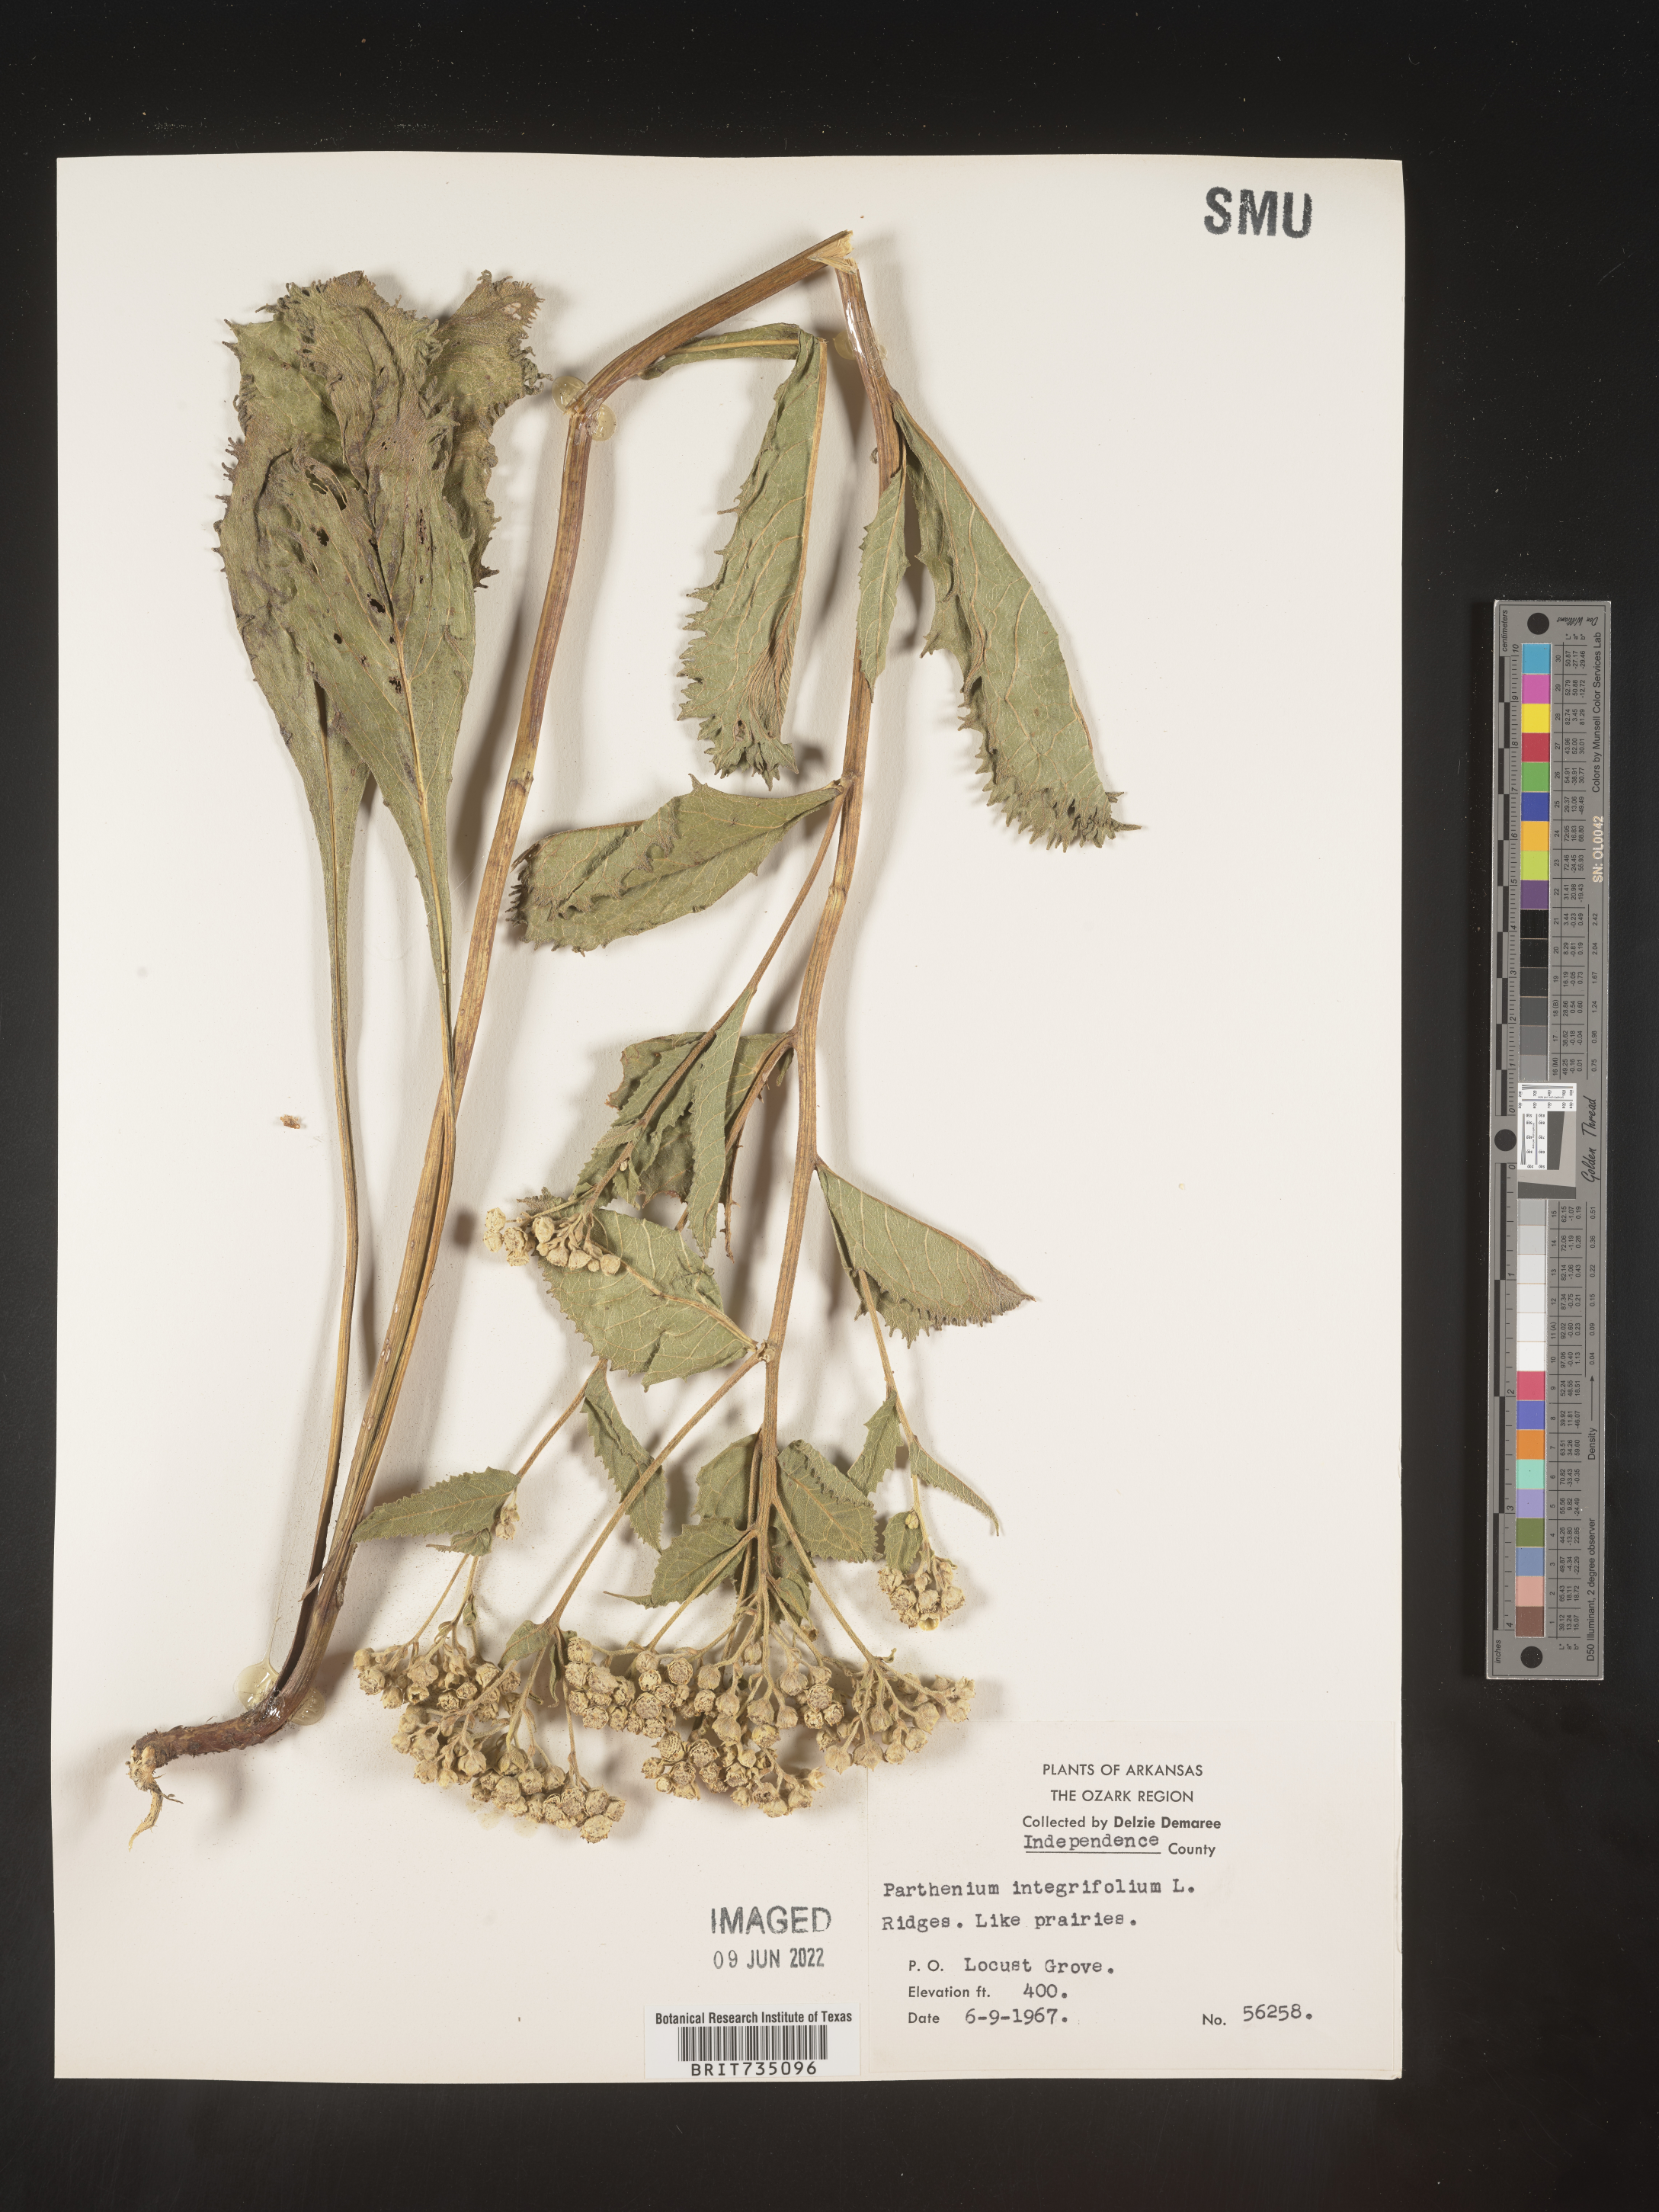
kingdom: Plantae
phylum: Tracheophyta
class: Magnoliopsida
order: Asterales
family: Asteraceae
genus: Parthenium
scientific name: Parthenium integrifolium
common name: American feverfew
